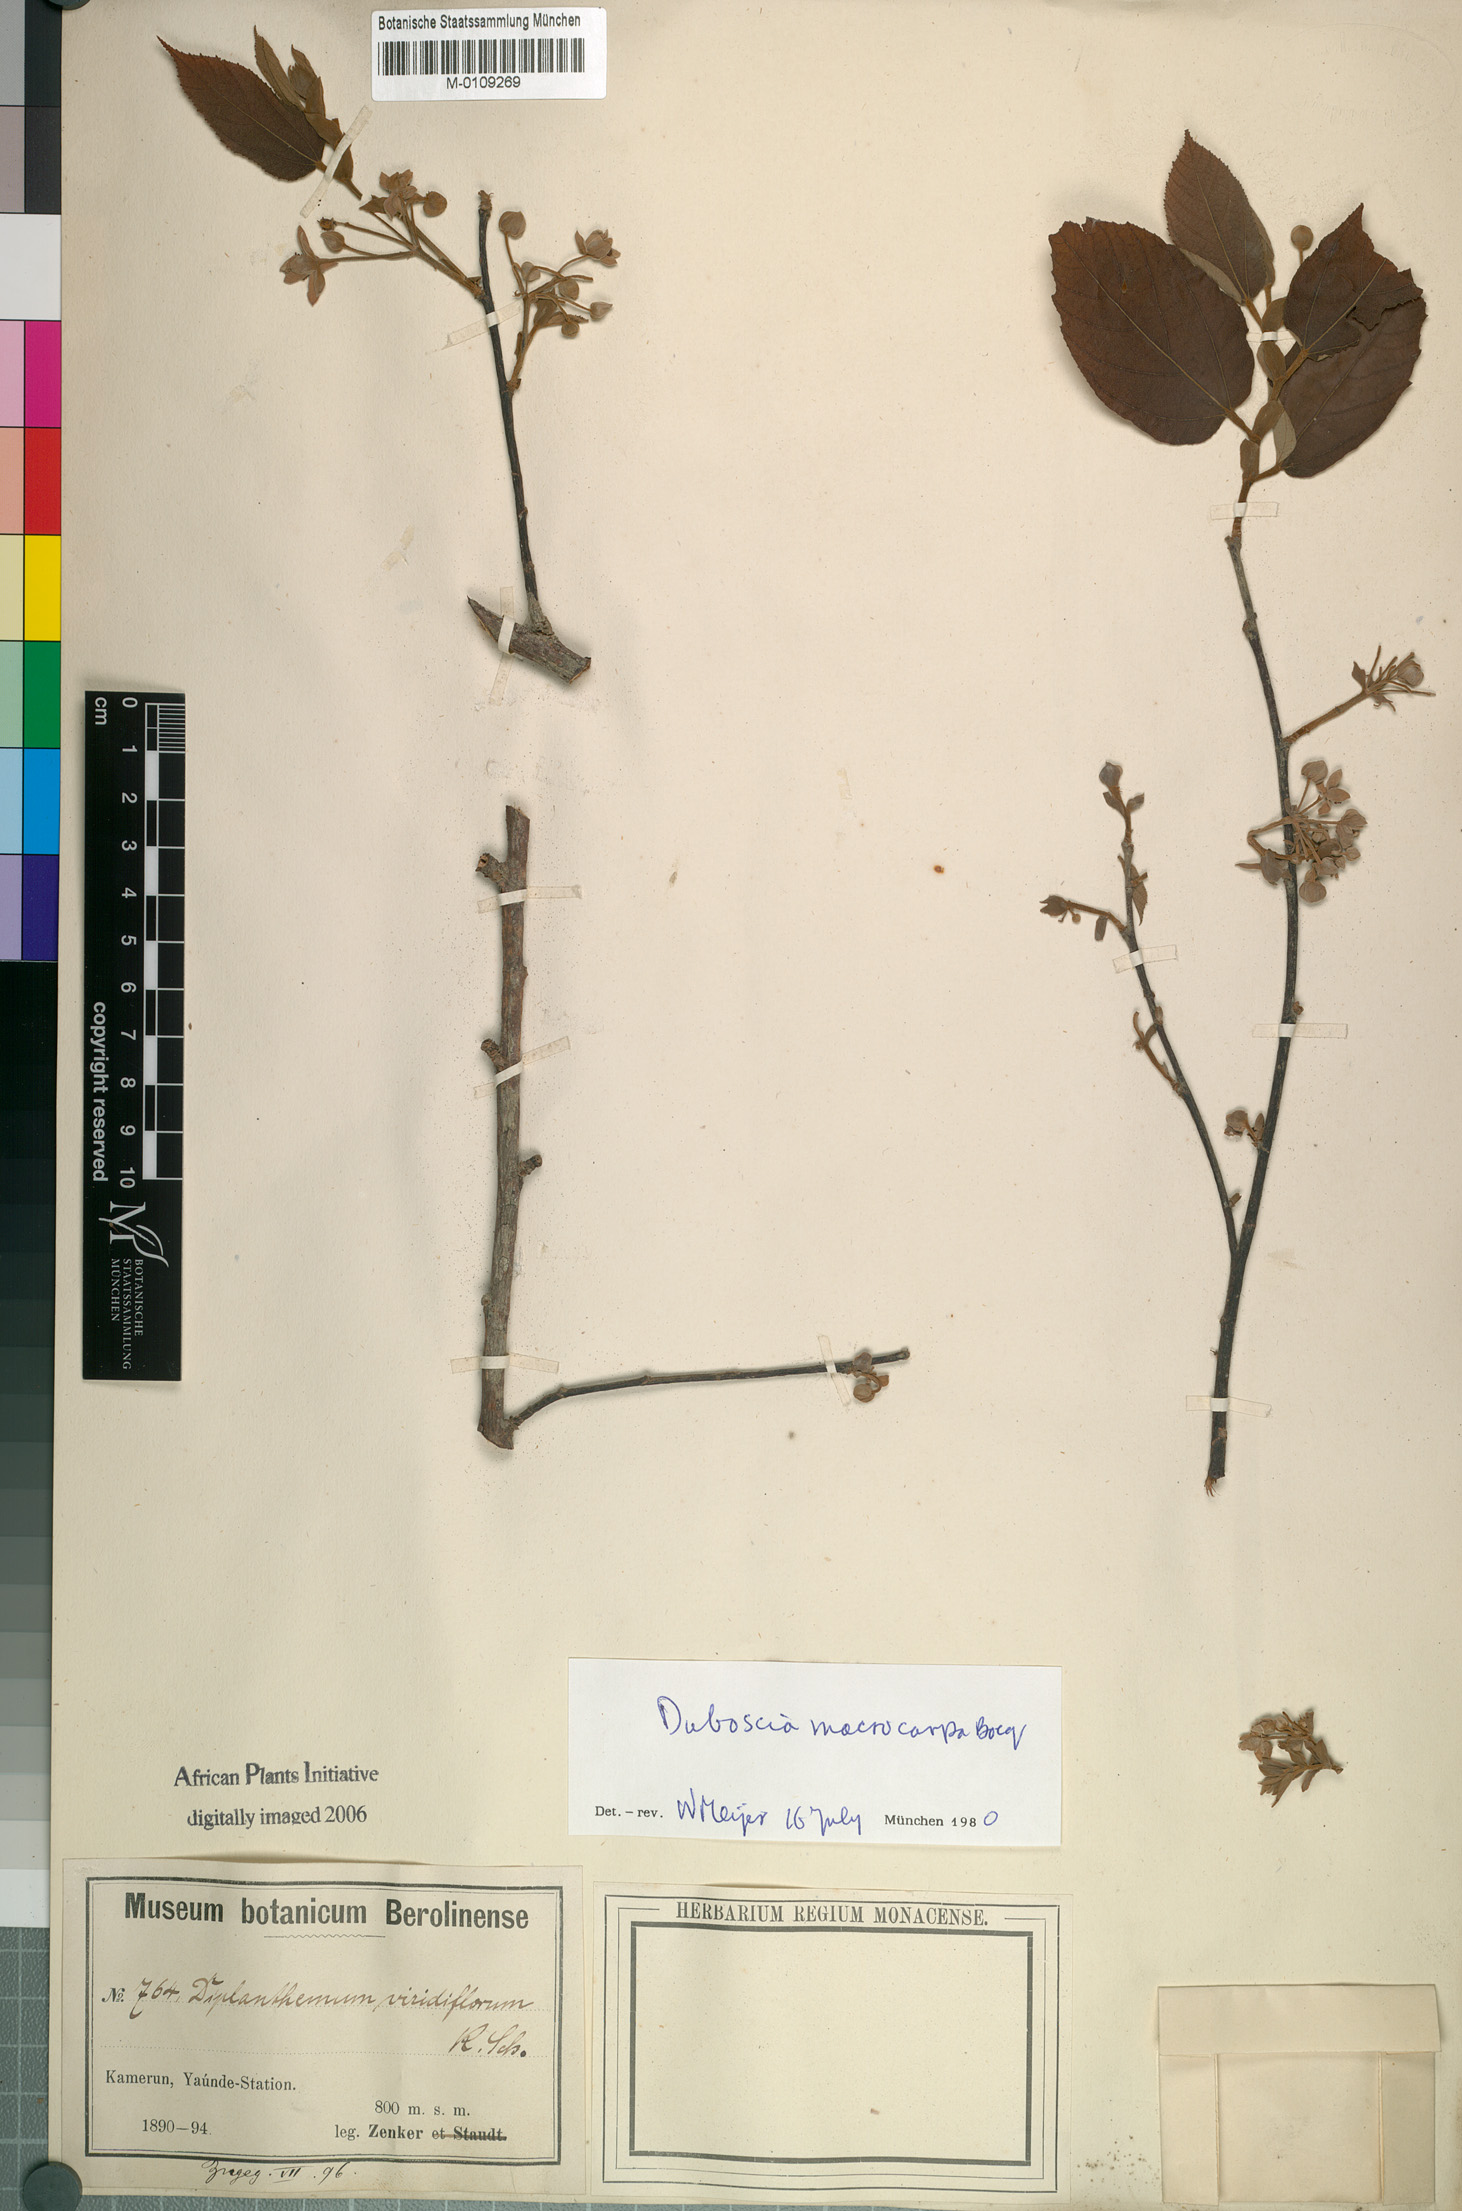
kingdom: Plantae
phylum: Tracheophyta
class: Magnoliopsida
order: Malvales
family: Malvaceae
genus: Duboscia
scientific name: Duboscia macrocarpa
